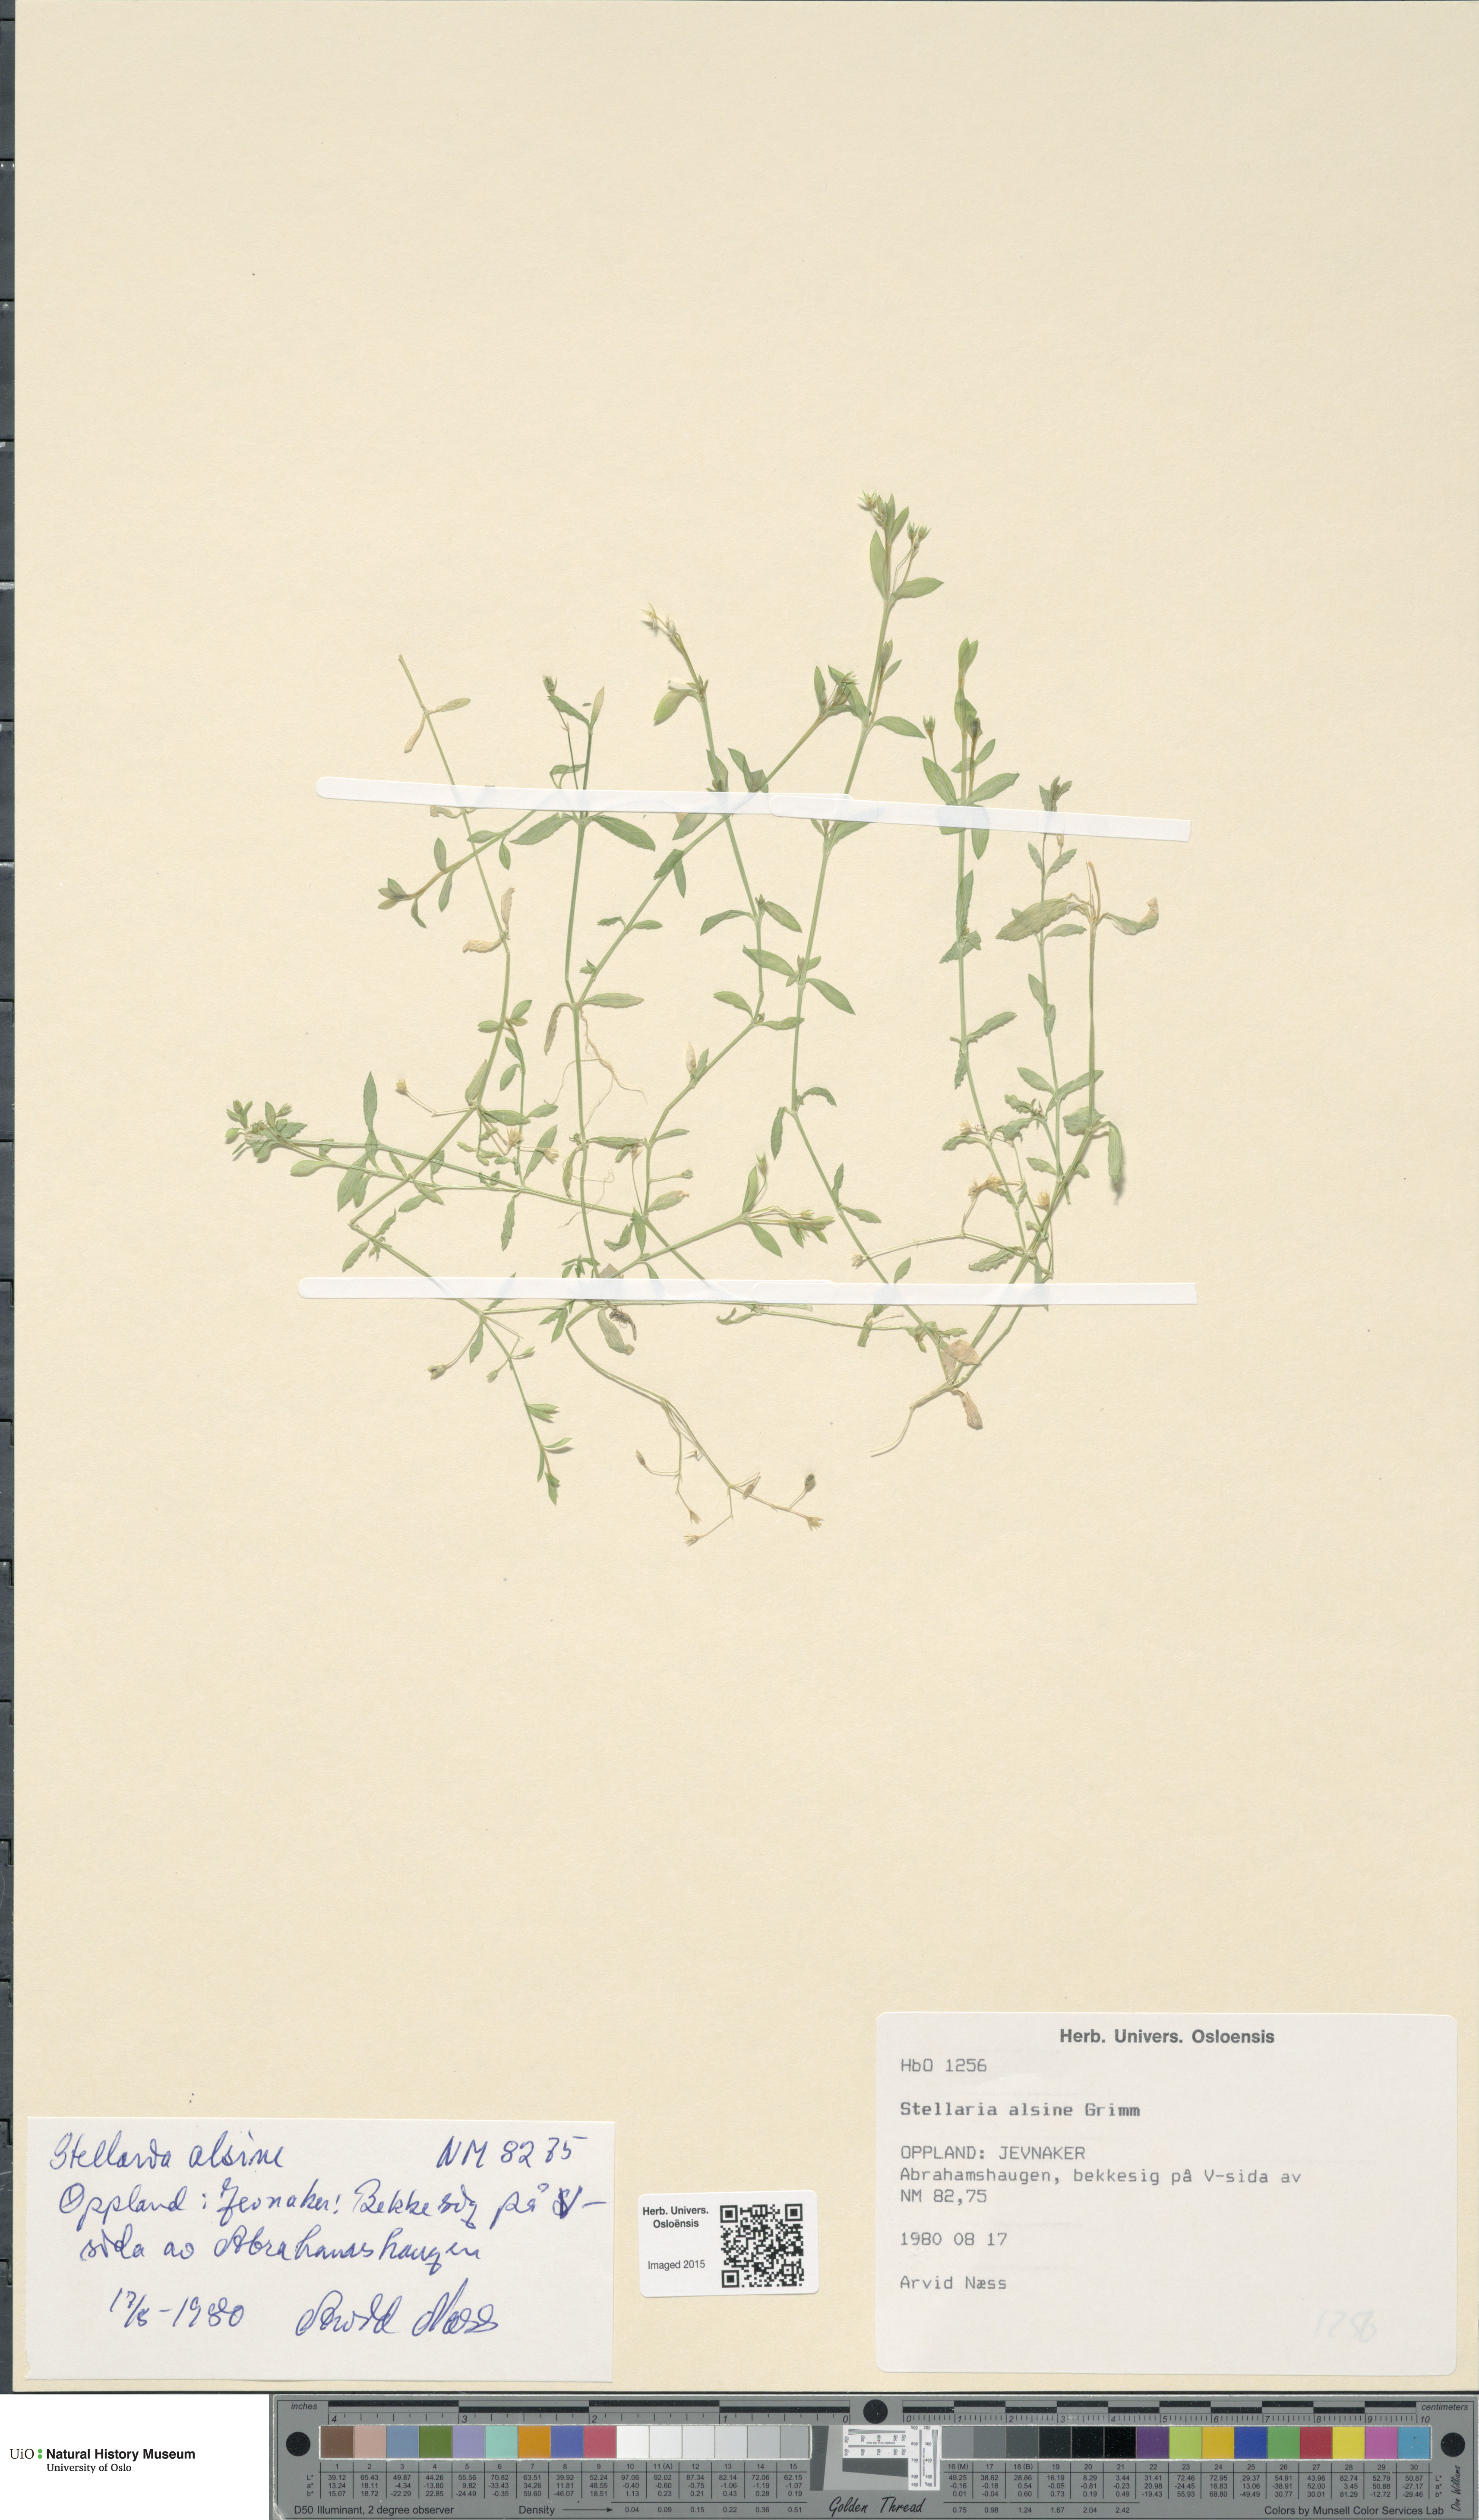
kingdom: Plantae
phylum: Tracheophyta
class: Magnoliopsida
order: Caryophyllales
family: Caryophyllaceae
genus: Stellaria
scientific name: Stellaria alsine
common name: Bog stitchwort
